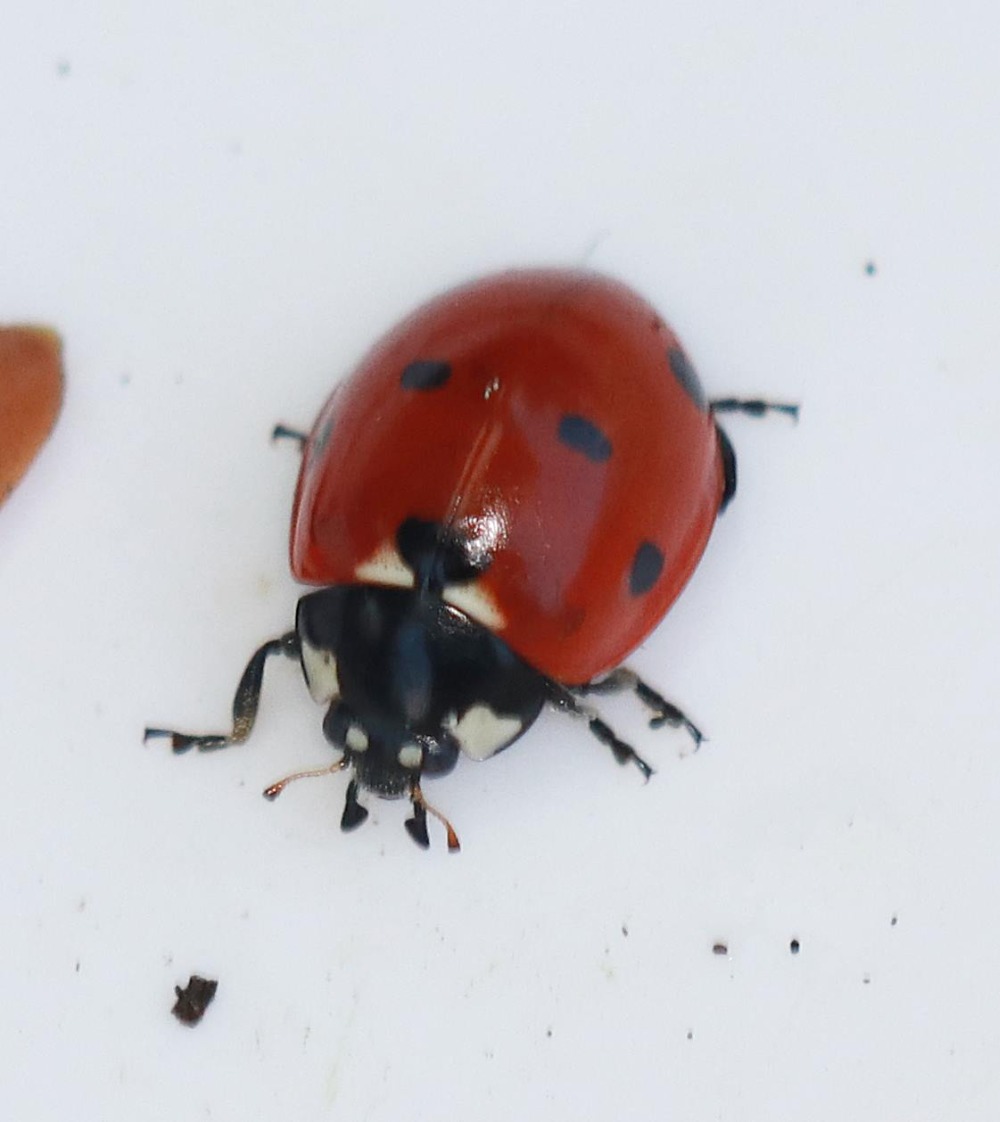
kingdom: Animalia
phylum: Arthropoda
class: Insecta
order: Coleoptera
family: Coccinellidae
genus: Coccinella
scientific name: Coccinella septempunctata
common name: Syvplettet mariehøne
